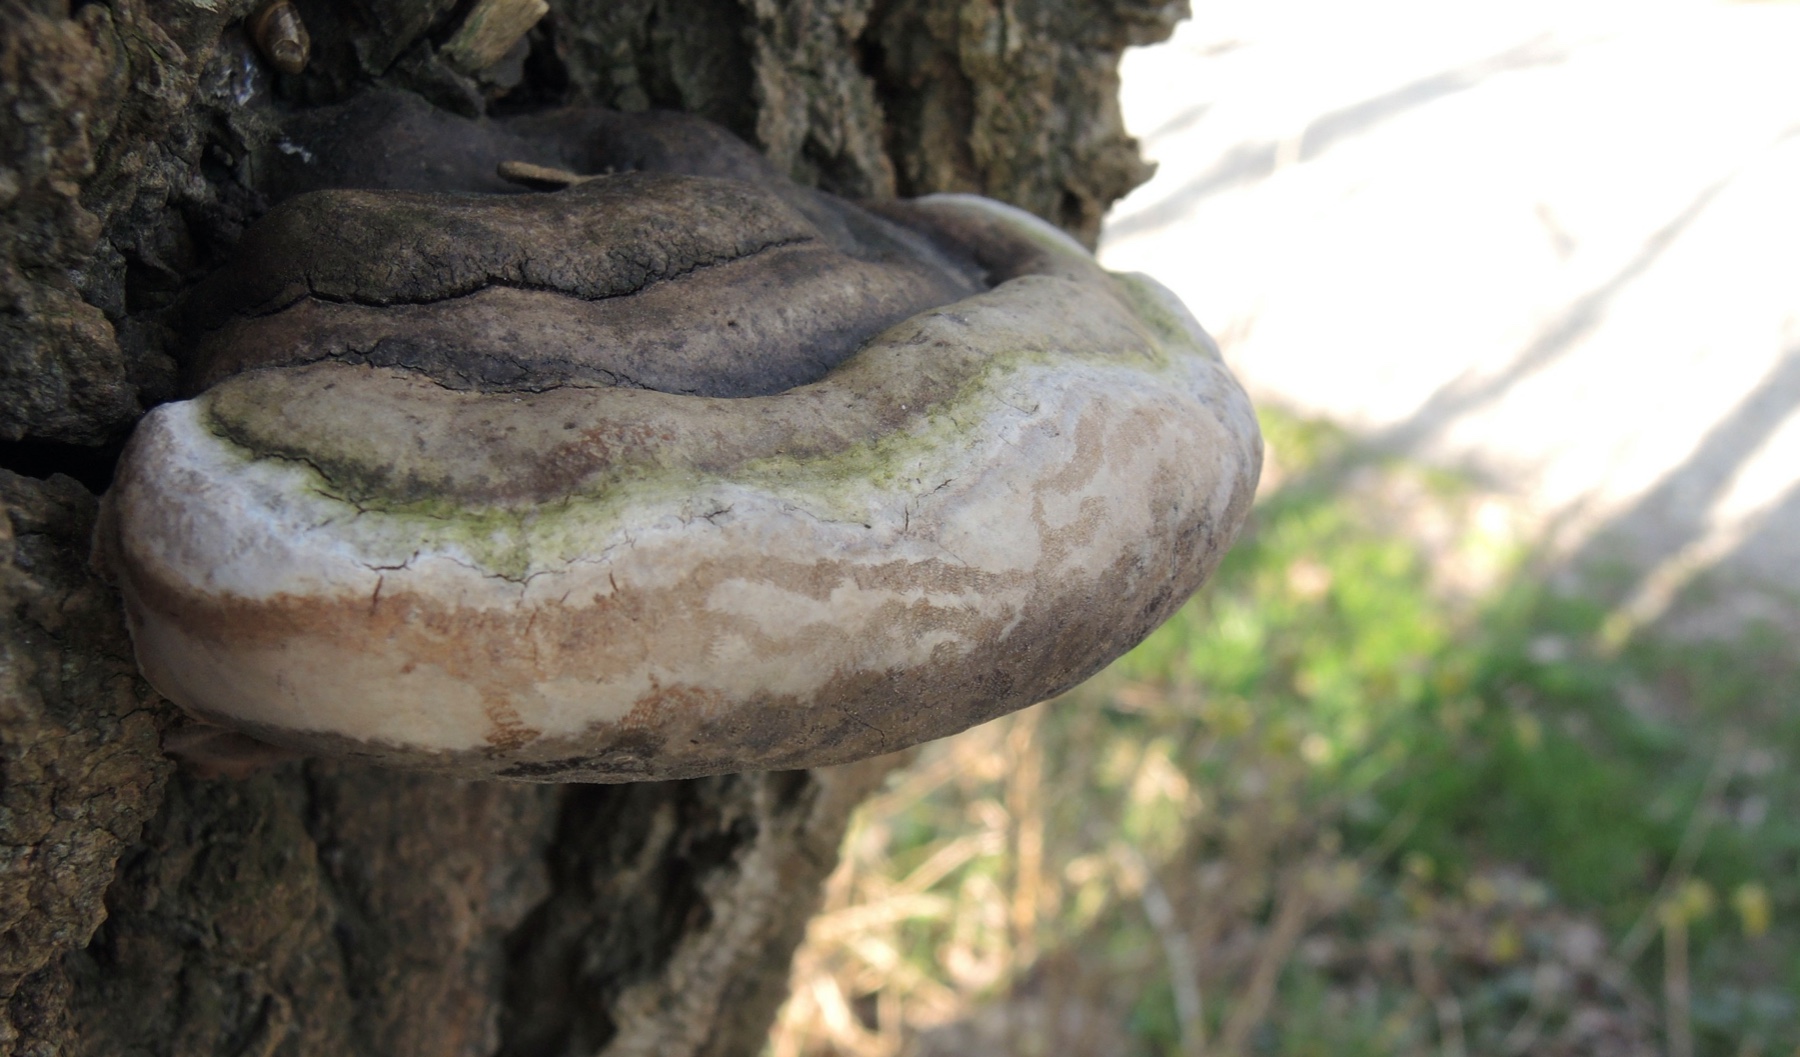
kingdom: Fungi
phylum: Basidiomycota
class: Agaricomycetes
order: Hymenochaetales
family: Hymenochaetaceae
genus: Phellinus
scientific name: Phellinus populicola
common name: poppel-ildporesvamp
